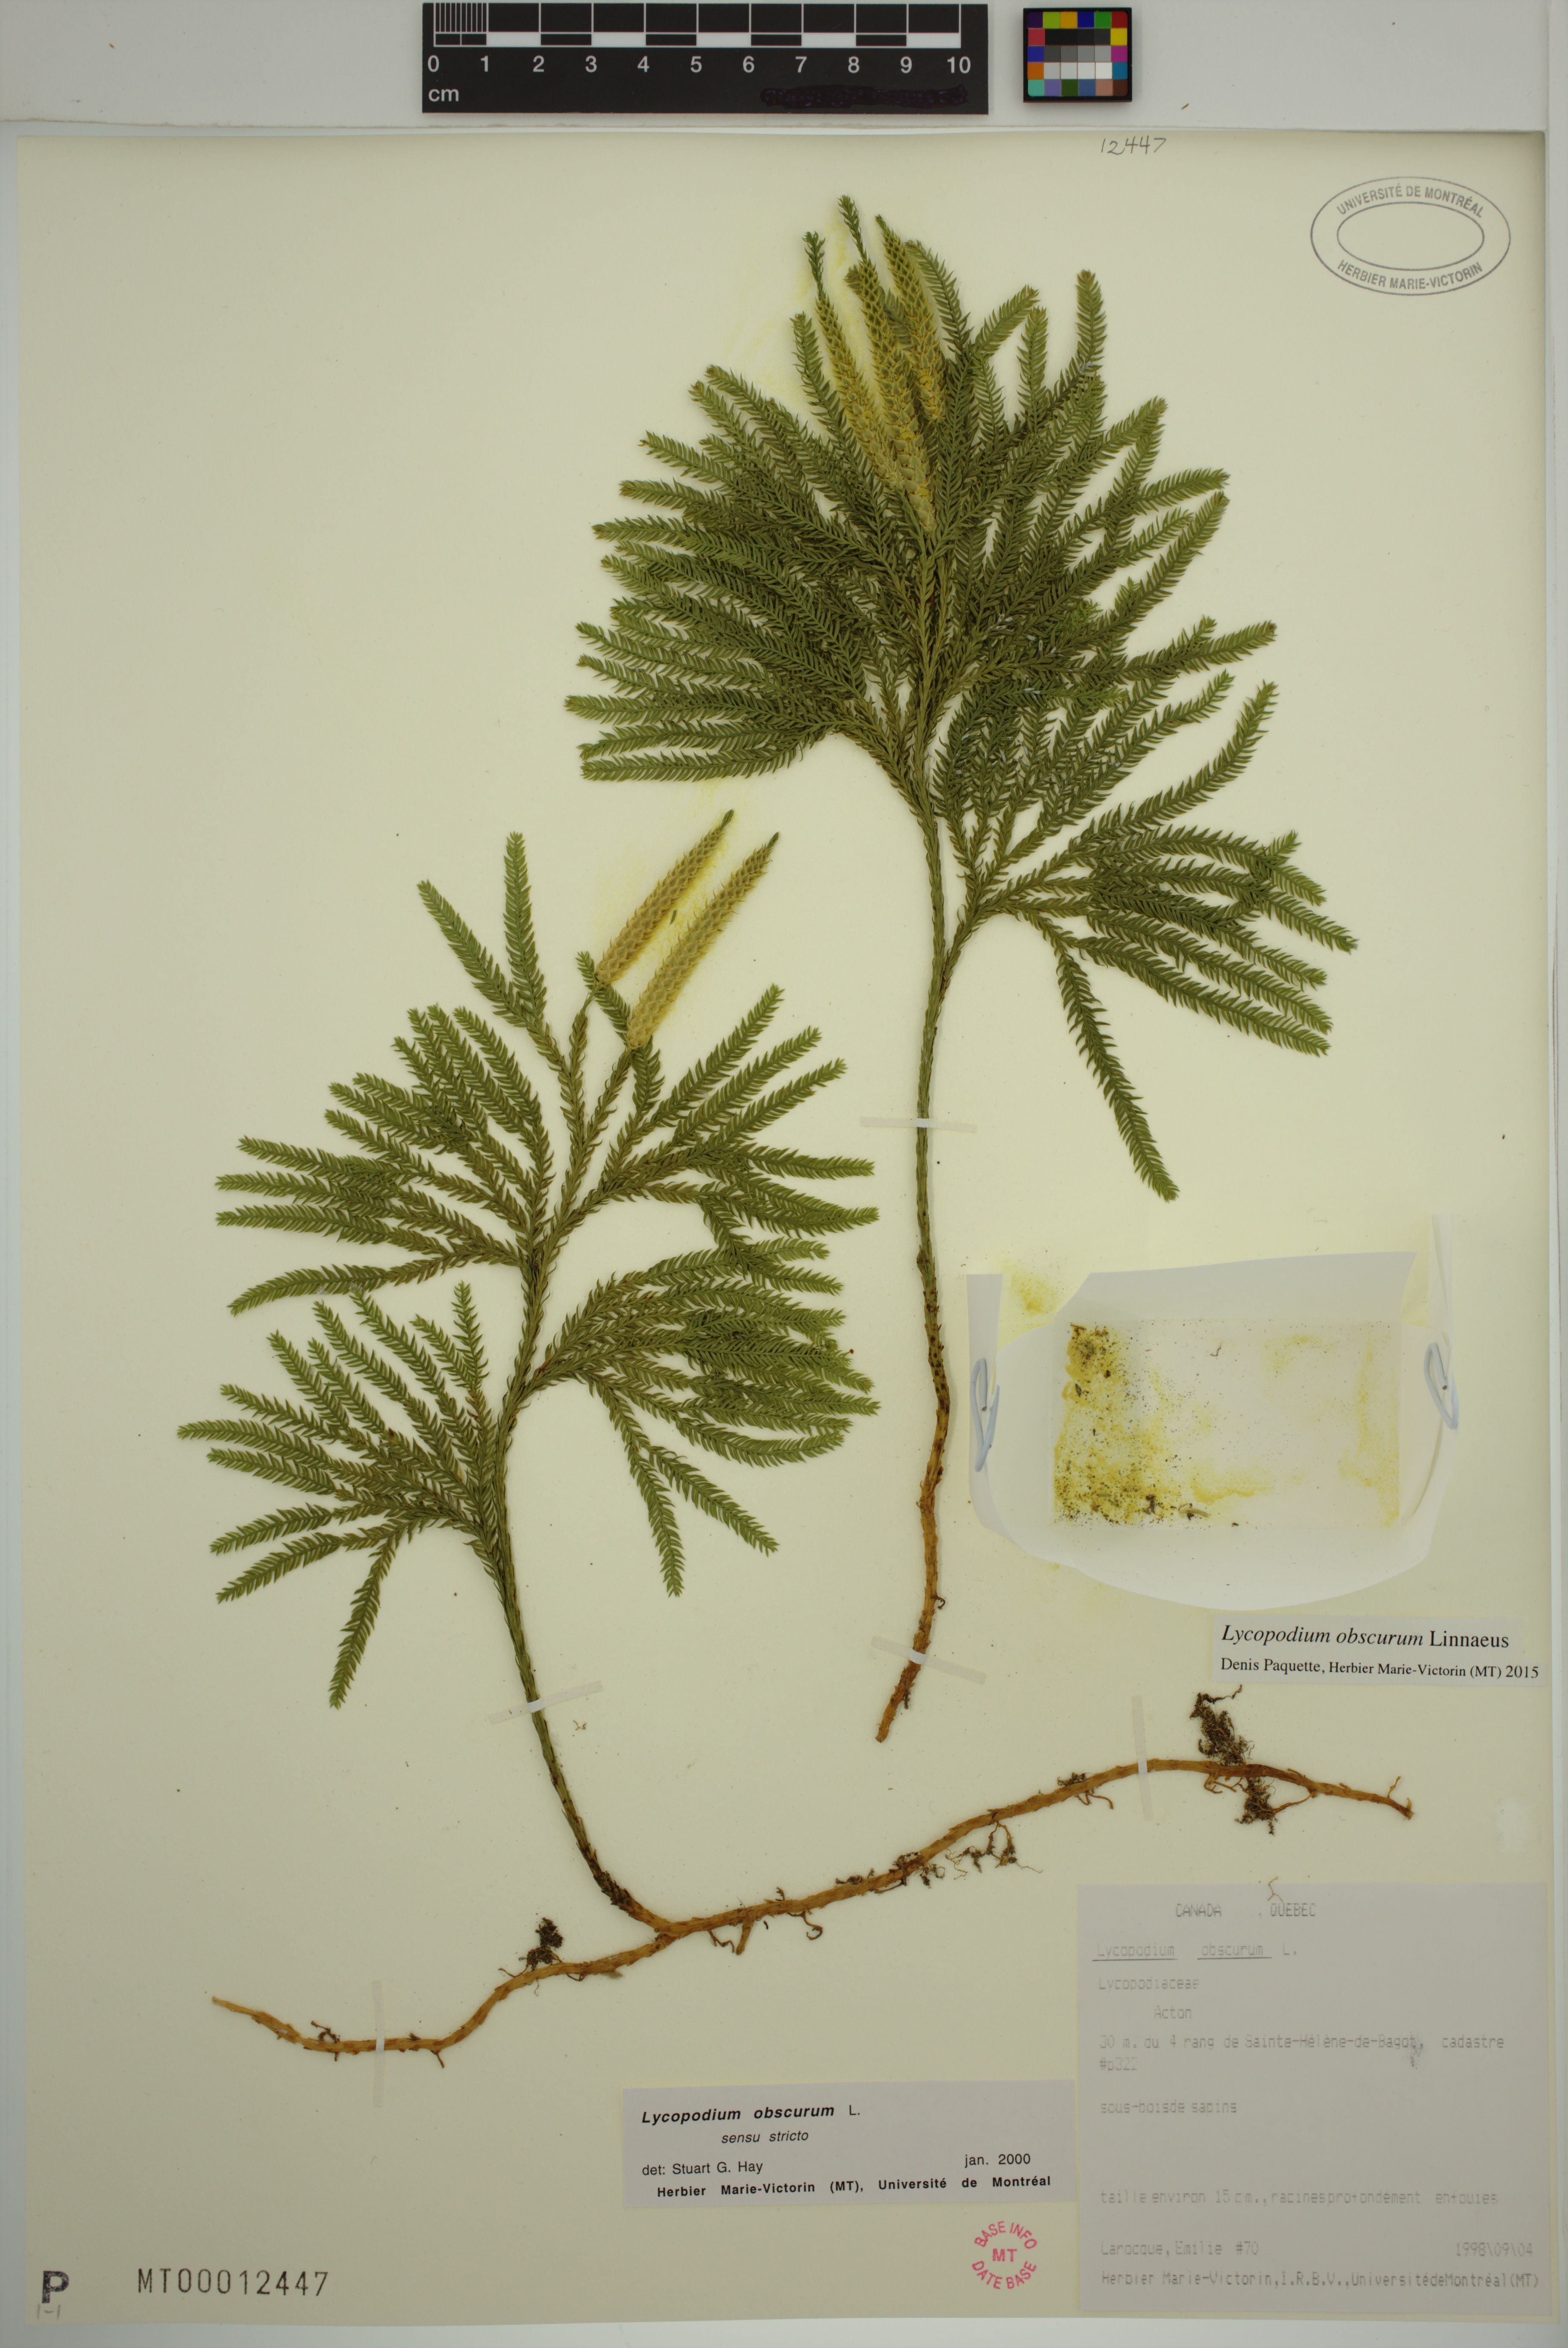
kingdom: Plantae
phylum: Tracheophyta
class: Lycopodiopsida
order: Lycopodiales
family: Lycopodiaceae
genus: Dendrolycopodium
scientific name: Dendrolycopodium obscurum
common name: Common ground-pine
